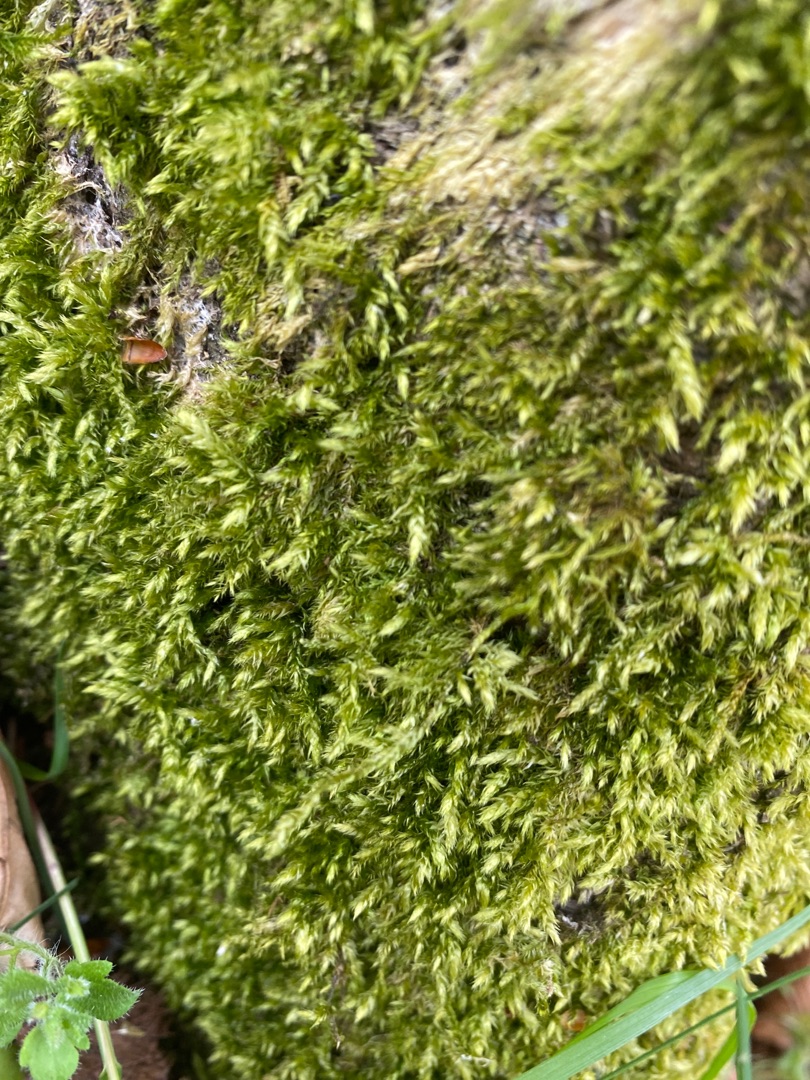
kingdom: Plantae
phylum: Bryophyta
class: Bryopsida
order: Hypnales
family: Brachytheciaceae
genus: Brachythecium
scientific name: Brachythecium rutabulum
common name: Almindelig kortkapsel
